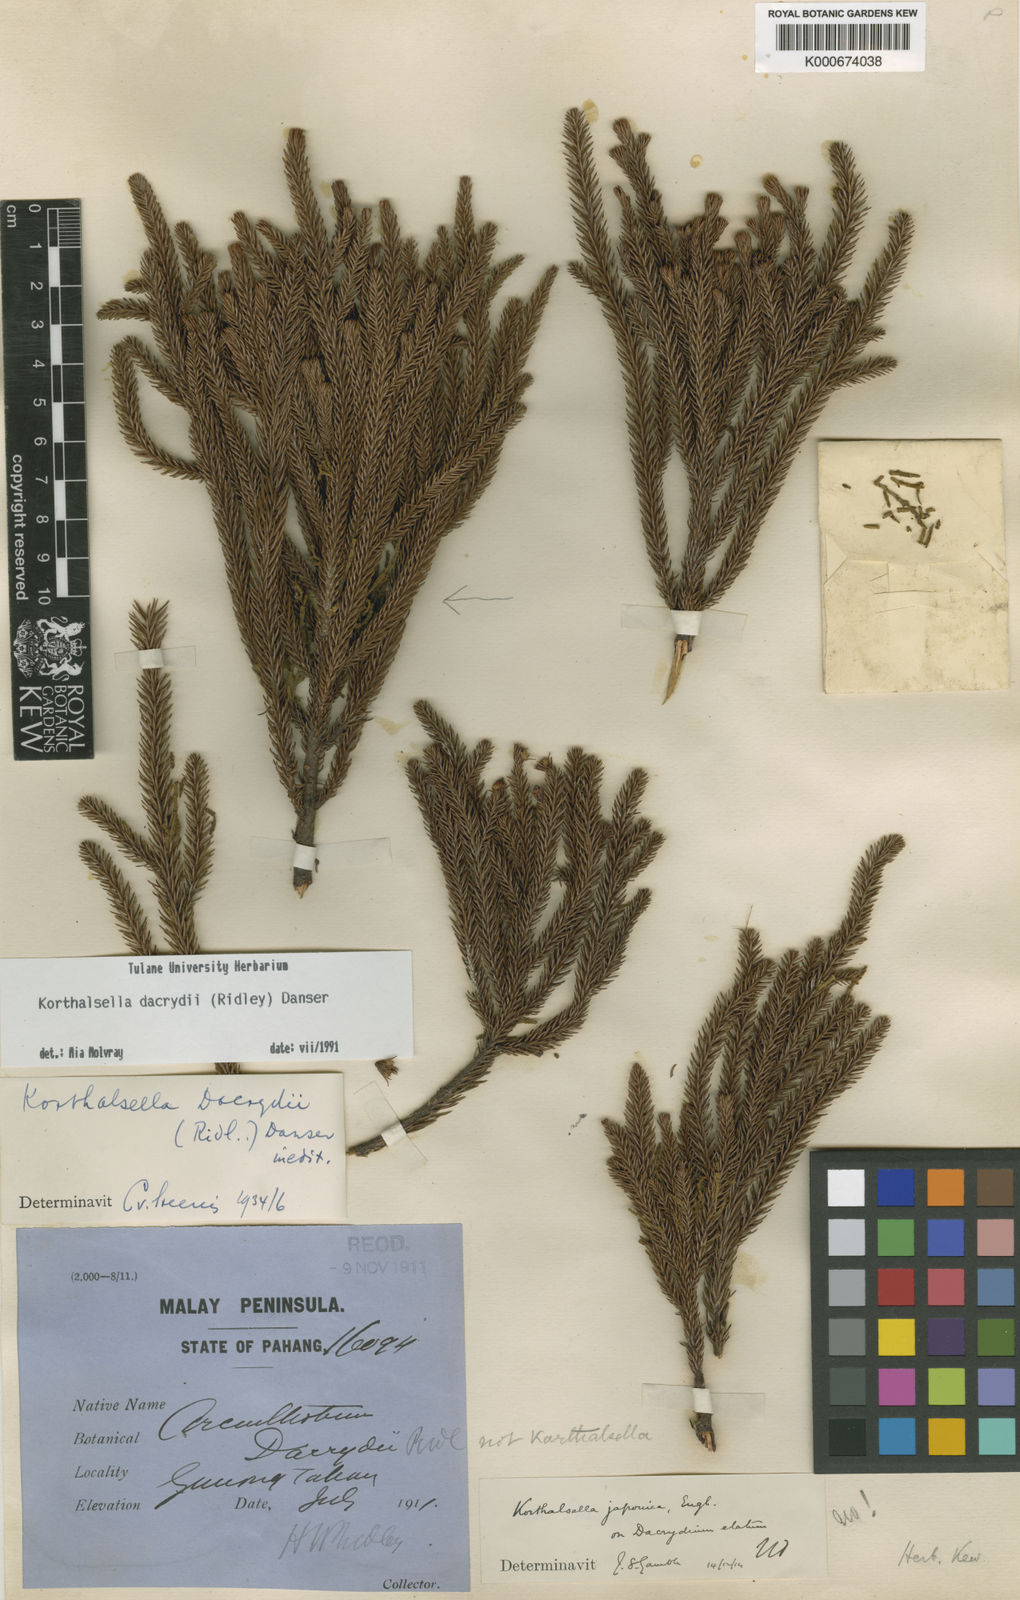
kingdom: Plantae
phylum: Tracheophyta
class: Magnoliopsida
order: Santalales
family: Viscaceae
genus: Korthalsella
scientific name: Korthalsella dacrydii
